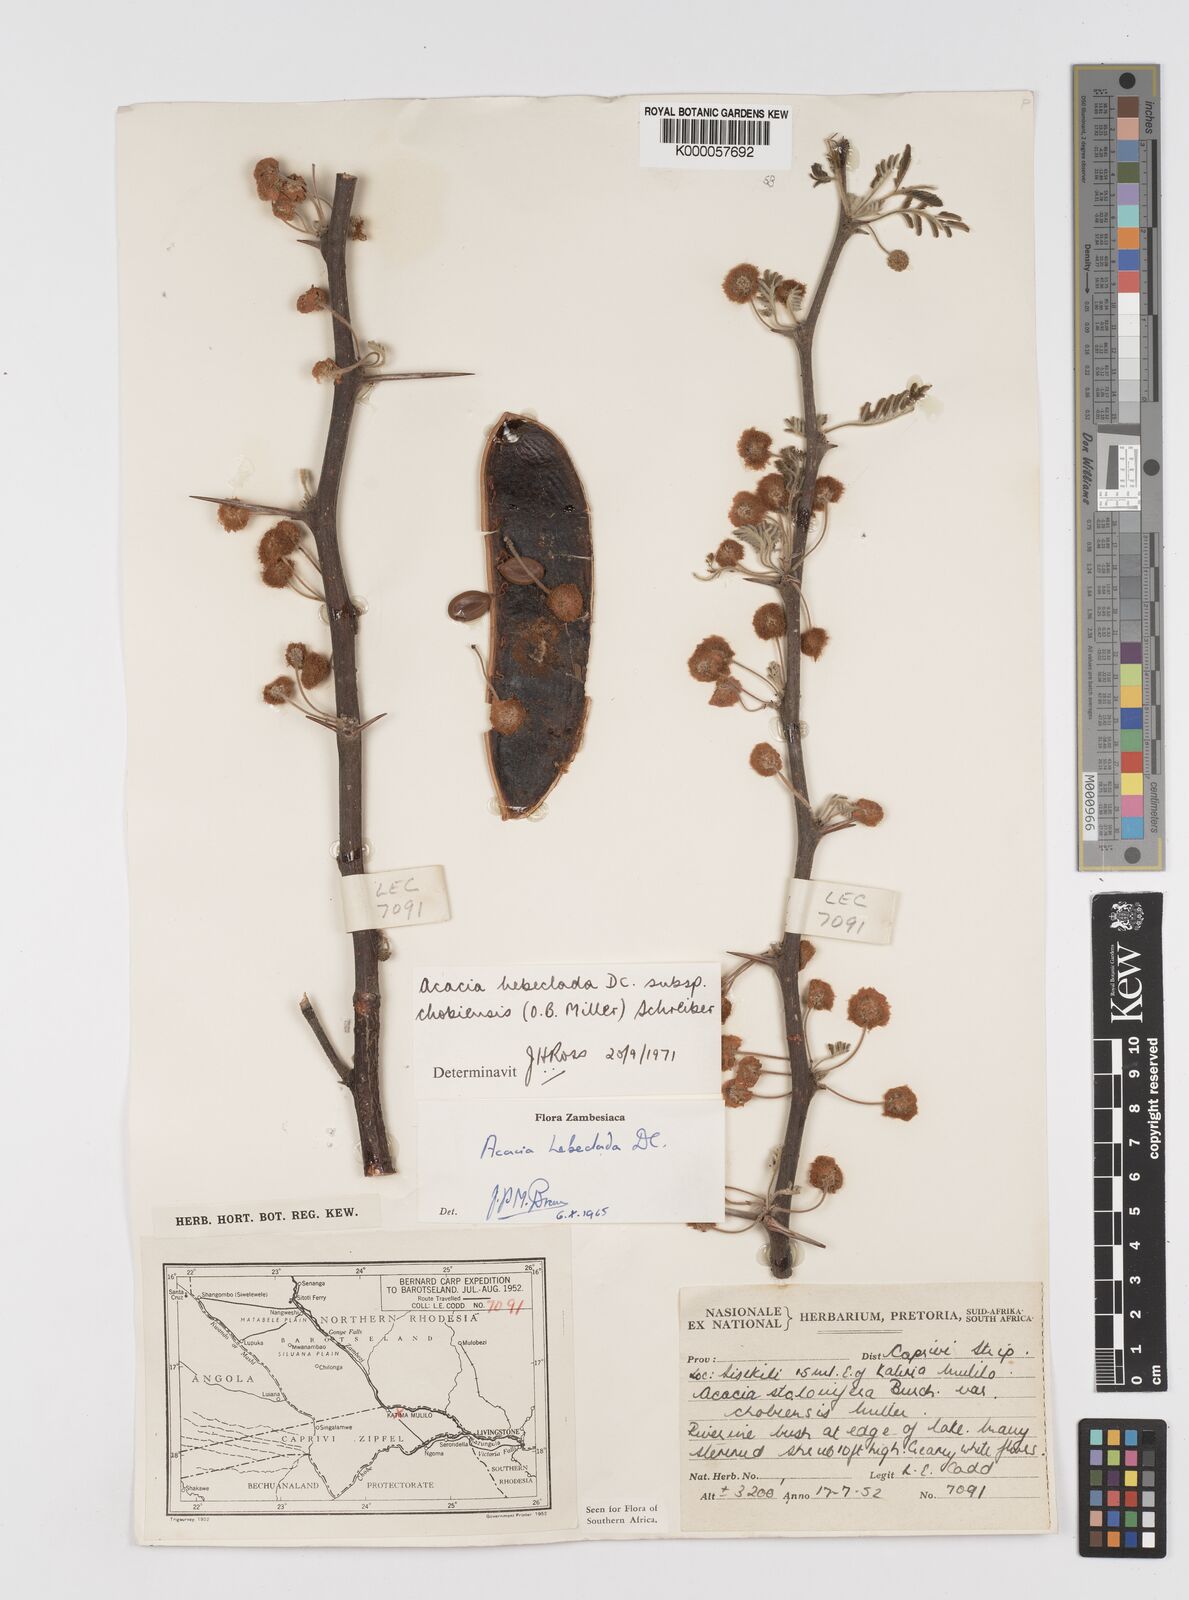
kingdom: Plantae
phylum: Tracheophyta
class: Magnoliopsida
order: Fabales
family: Fabaceae
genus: Vachellia
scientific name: Vachellia hebeclada
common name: Candle thorn
